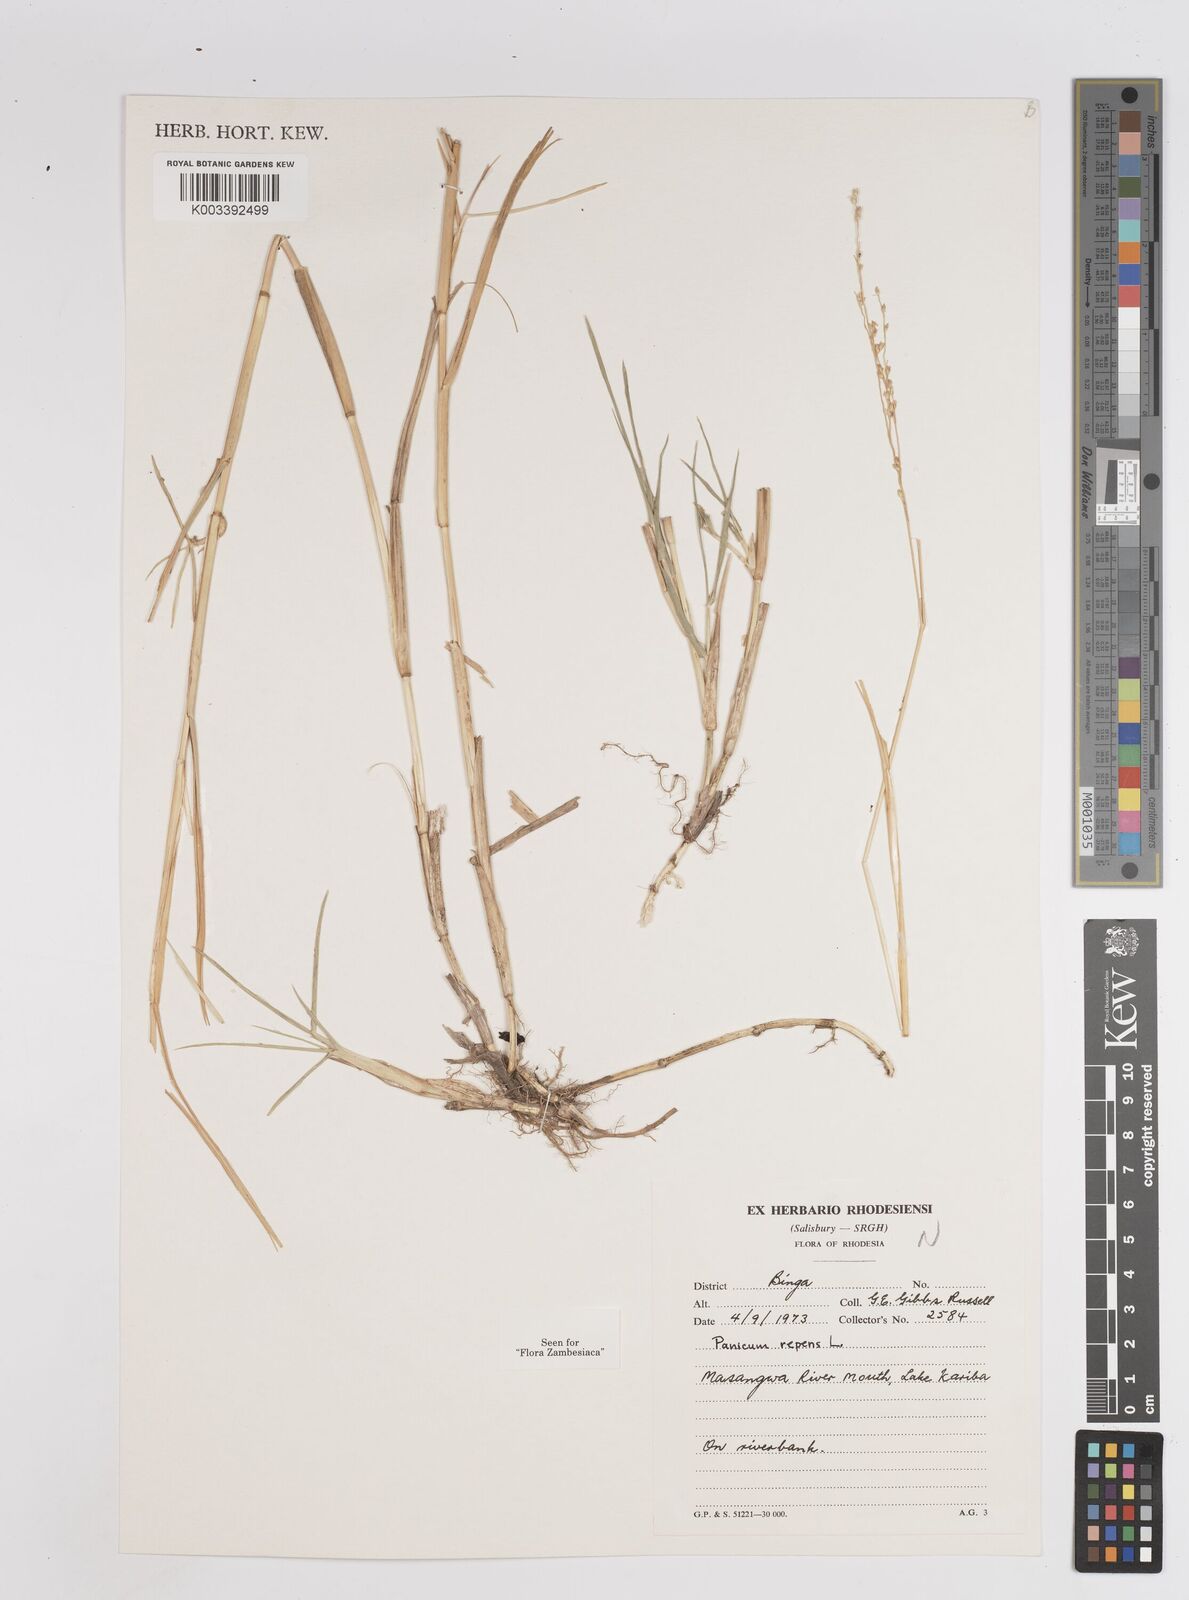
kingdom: Plantae
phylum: Tracheophyta
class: Liliopsida
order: Poales
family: Poaceae
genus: Panicum
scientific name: Panicum repens
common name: Torpedo grass
